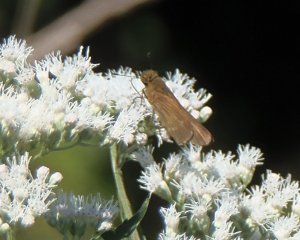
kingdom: Animalia
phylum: Arthropoda
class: Insecta
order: Lepidoptera
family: Hesperiidae
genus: Panoquina
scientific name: Panoquina ocola
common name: Ocola Skipper
